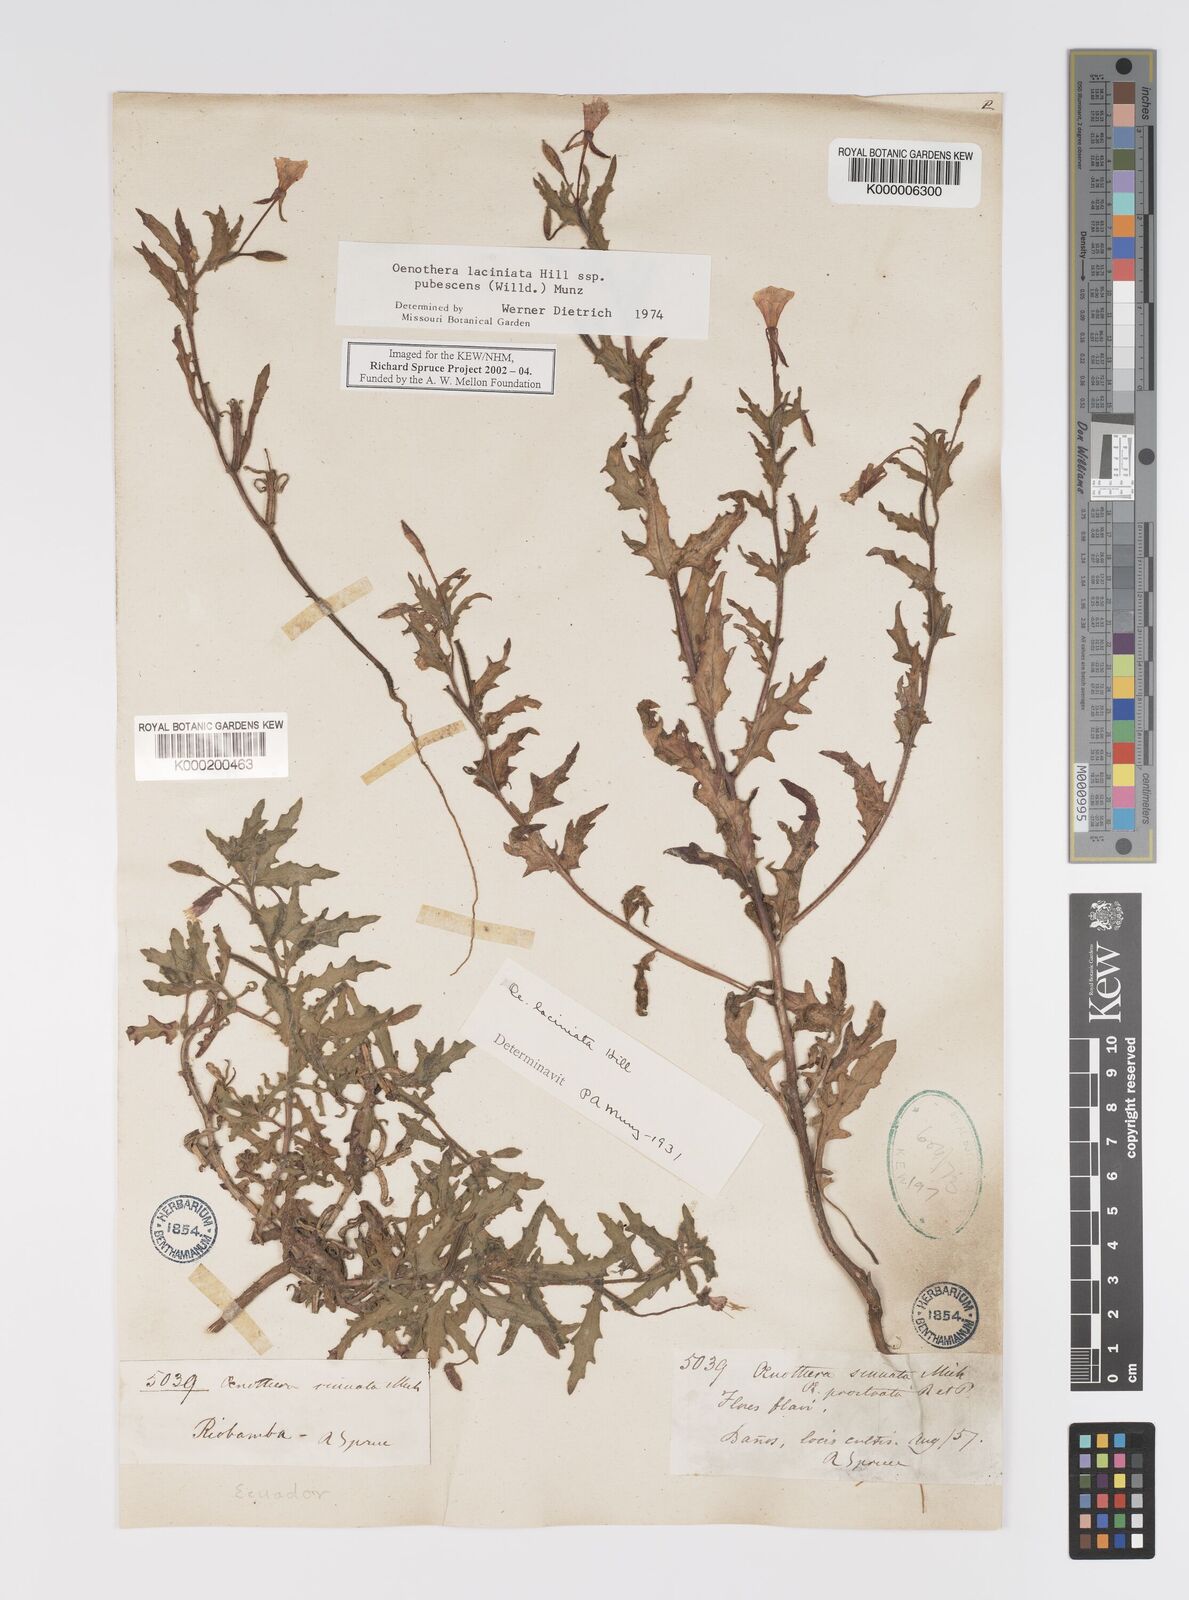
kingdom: Plantae
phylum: Tracheophyta
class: Magnoliopsida
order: Myrtales
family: Onagraceae
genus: Oenothera
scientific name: Oenothera laciniata
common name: Cut-leaved evening-primrose
